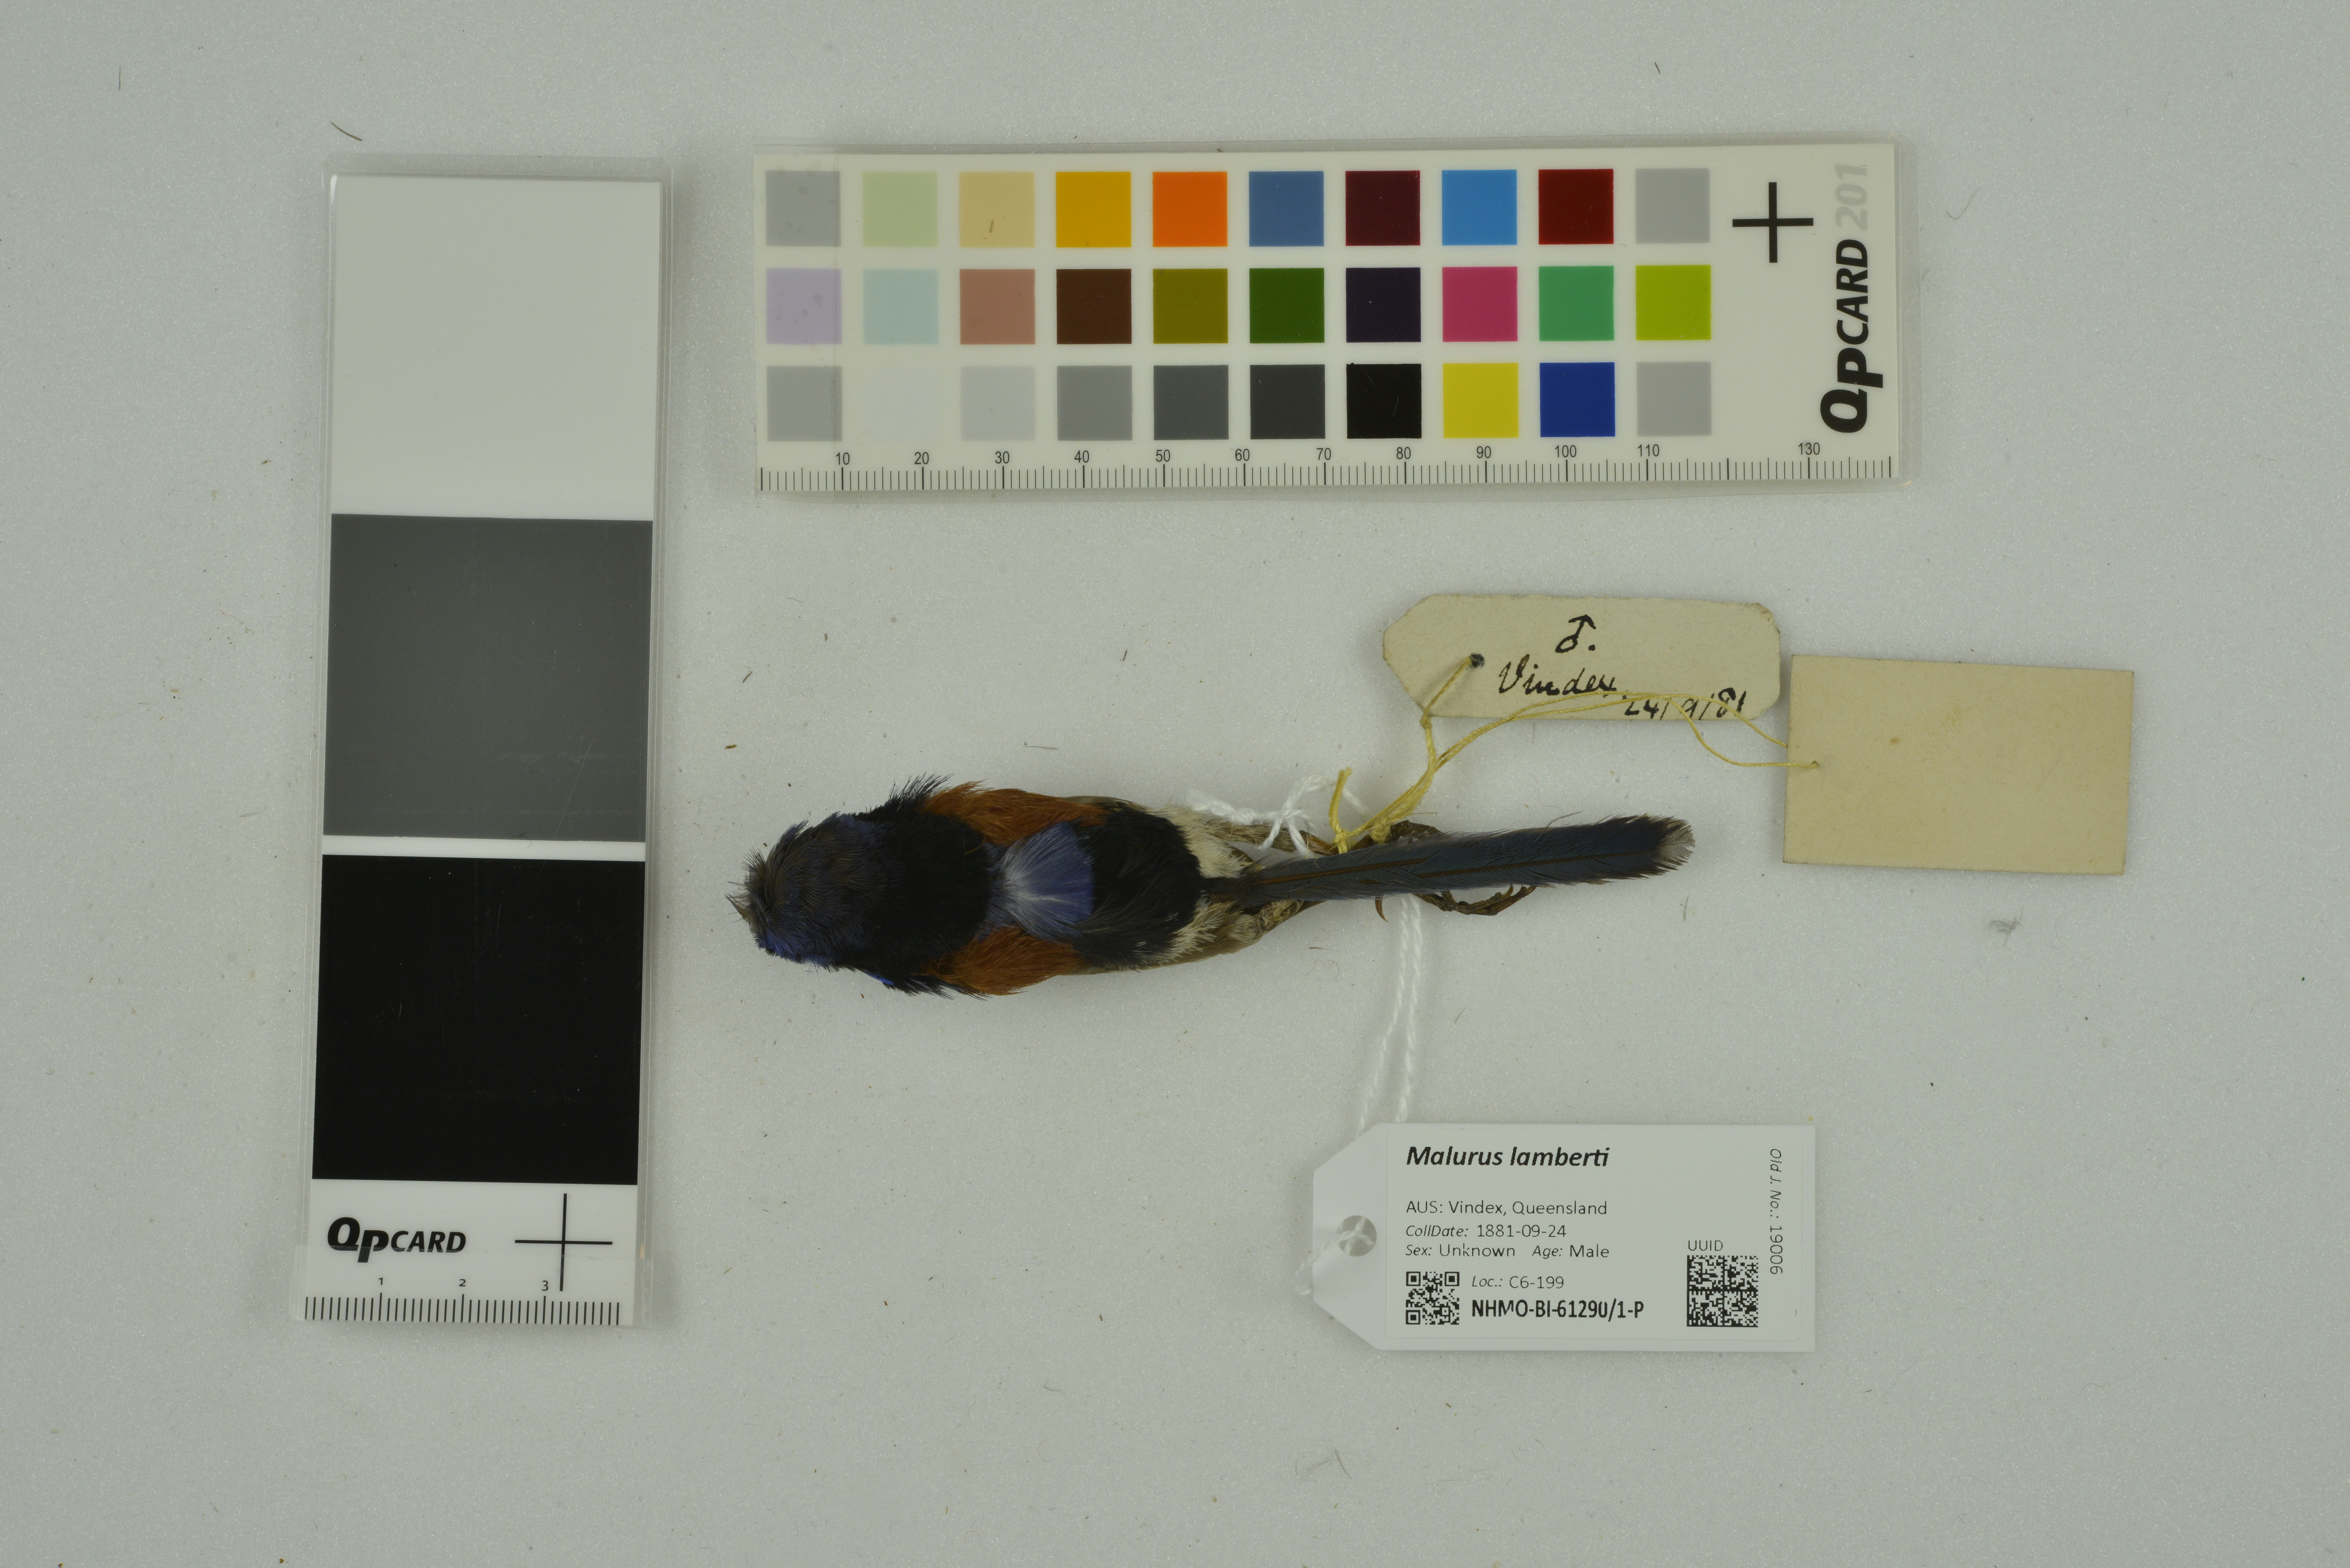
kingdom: Animalia
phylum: Chordata
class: Aves
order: Passeriformes
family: Maluridae
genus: Malurus
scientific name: Malurus assimilis
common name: Purple-backed fairywren
